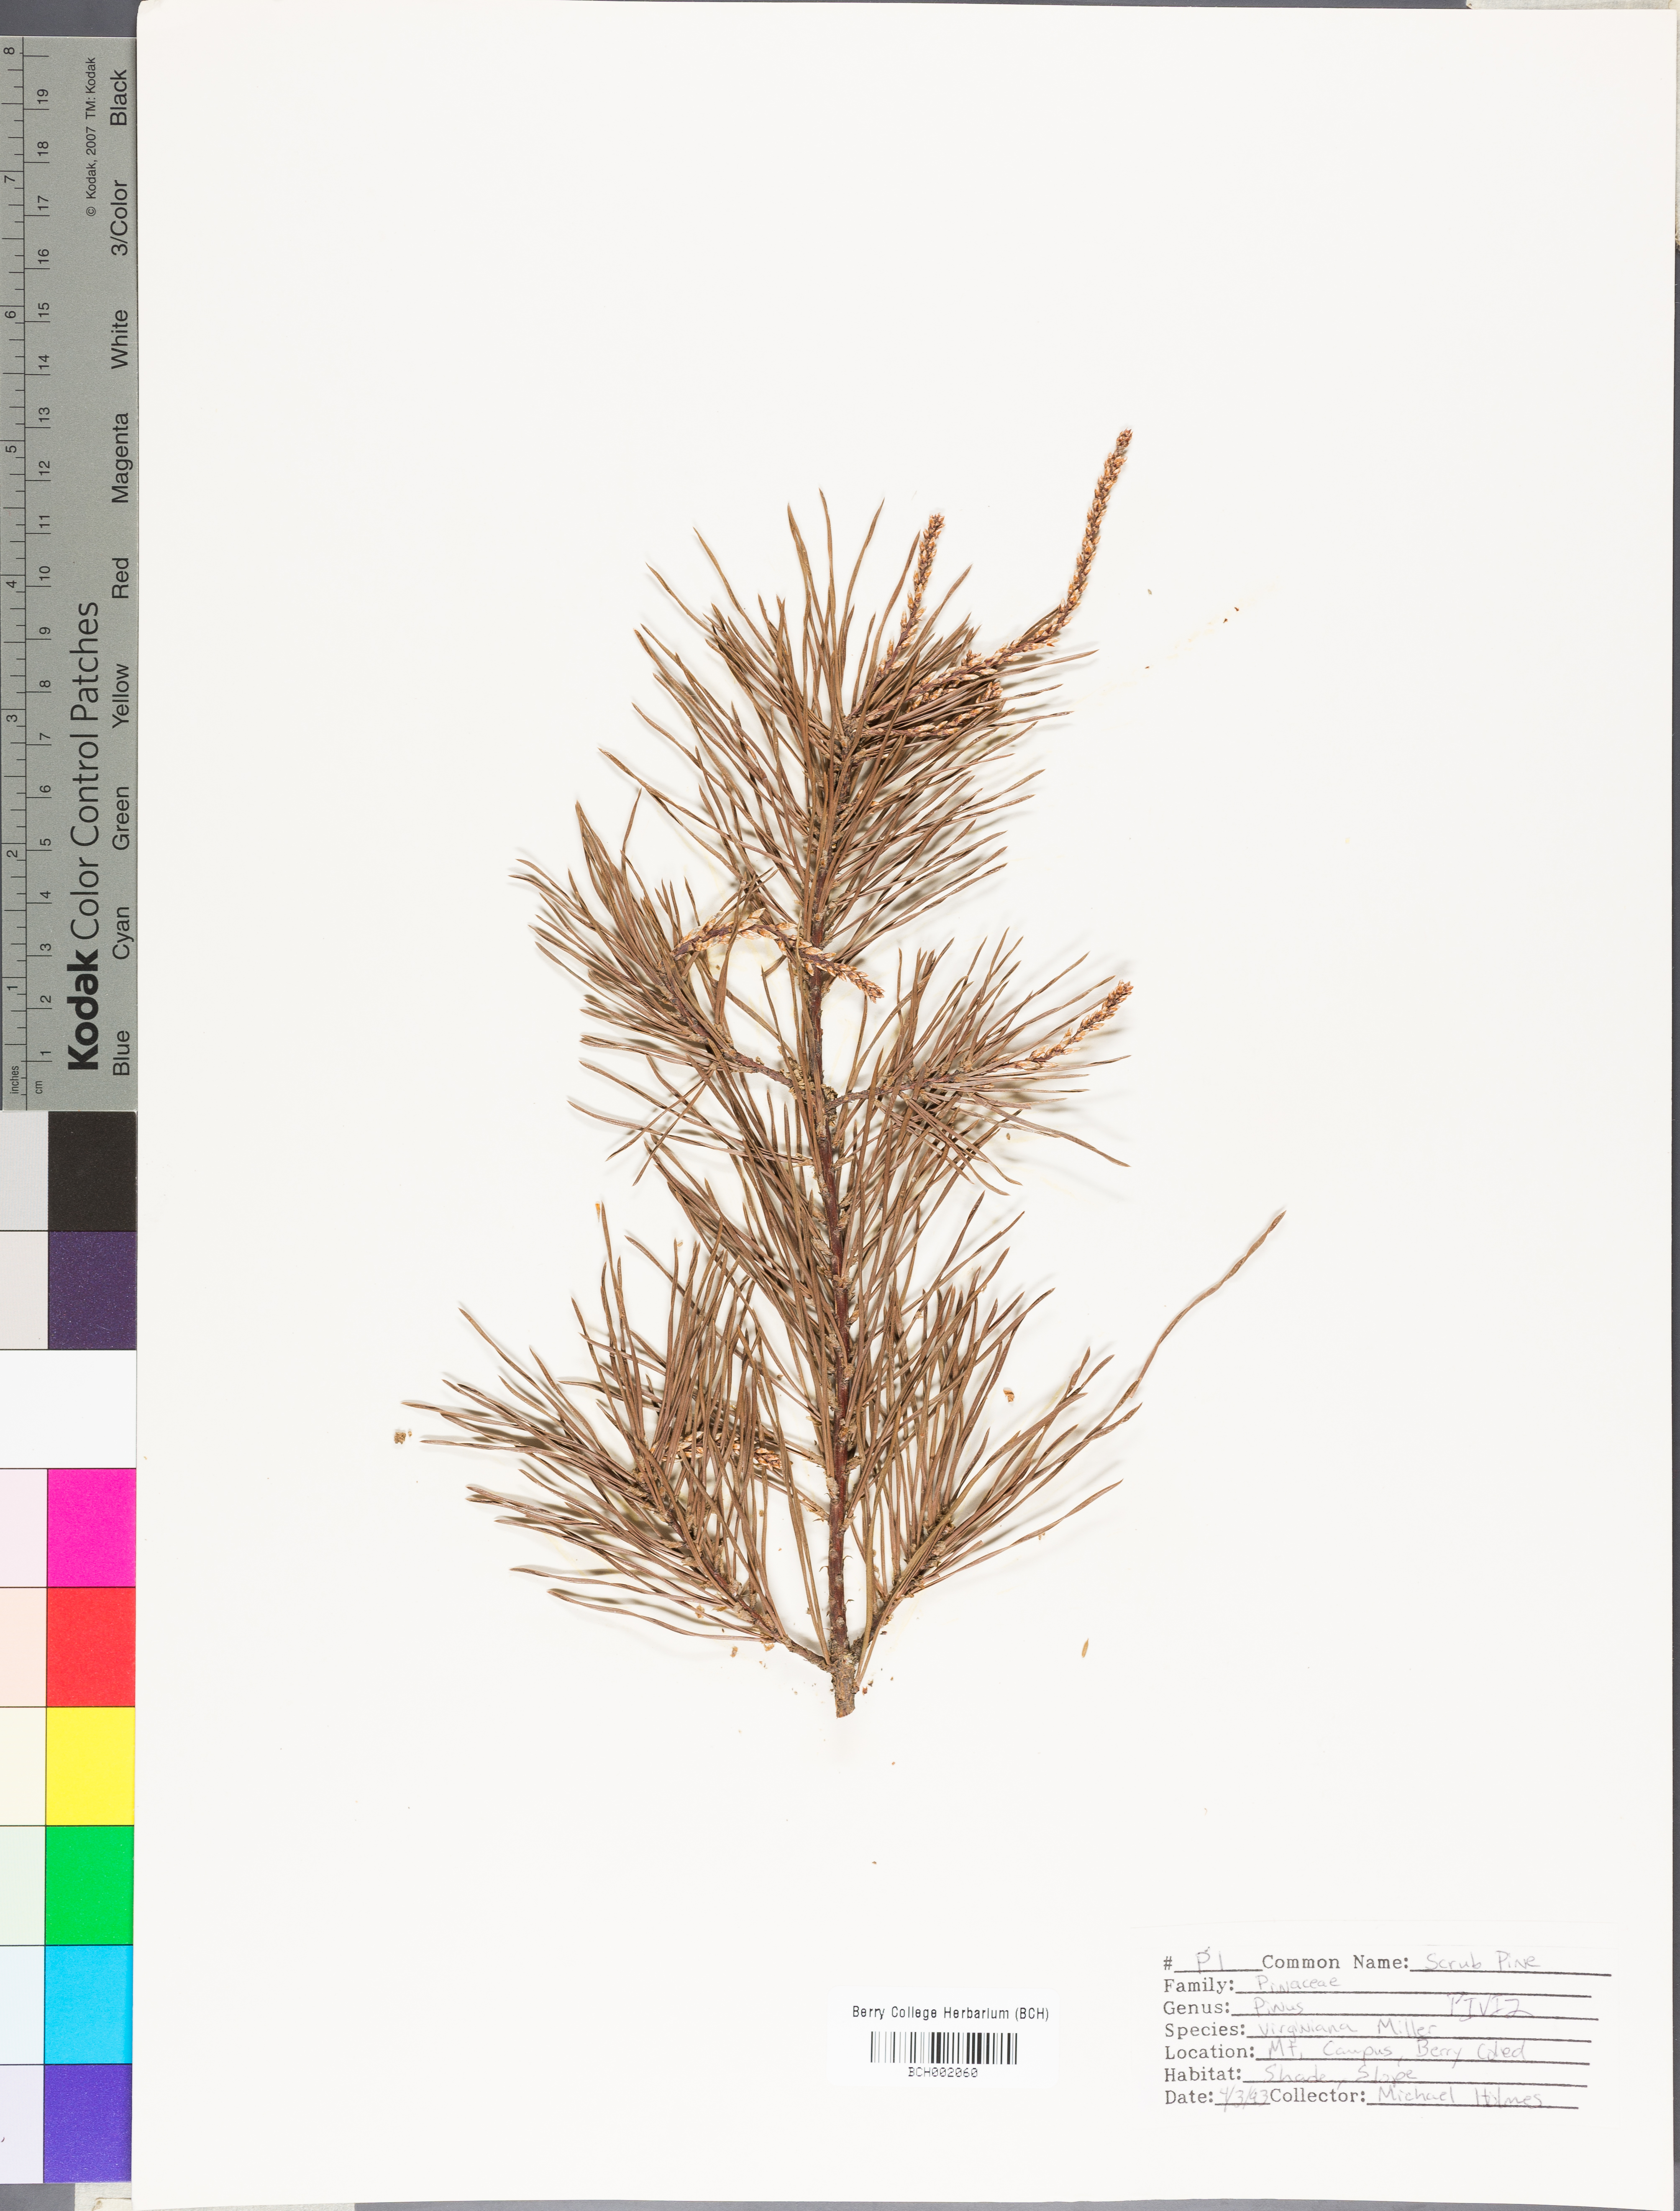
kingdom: Plantae
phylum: Tracheophyta
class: Pinopsida
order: Pinales
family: Pinaceae
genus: Pinus
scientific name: Pinus virginiana
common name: Scrub pine
